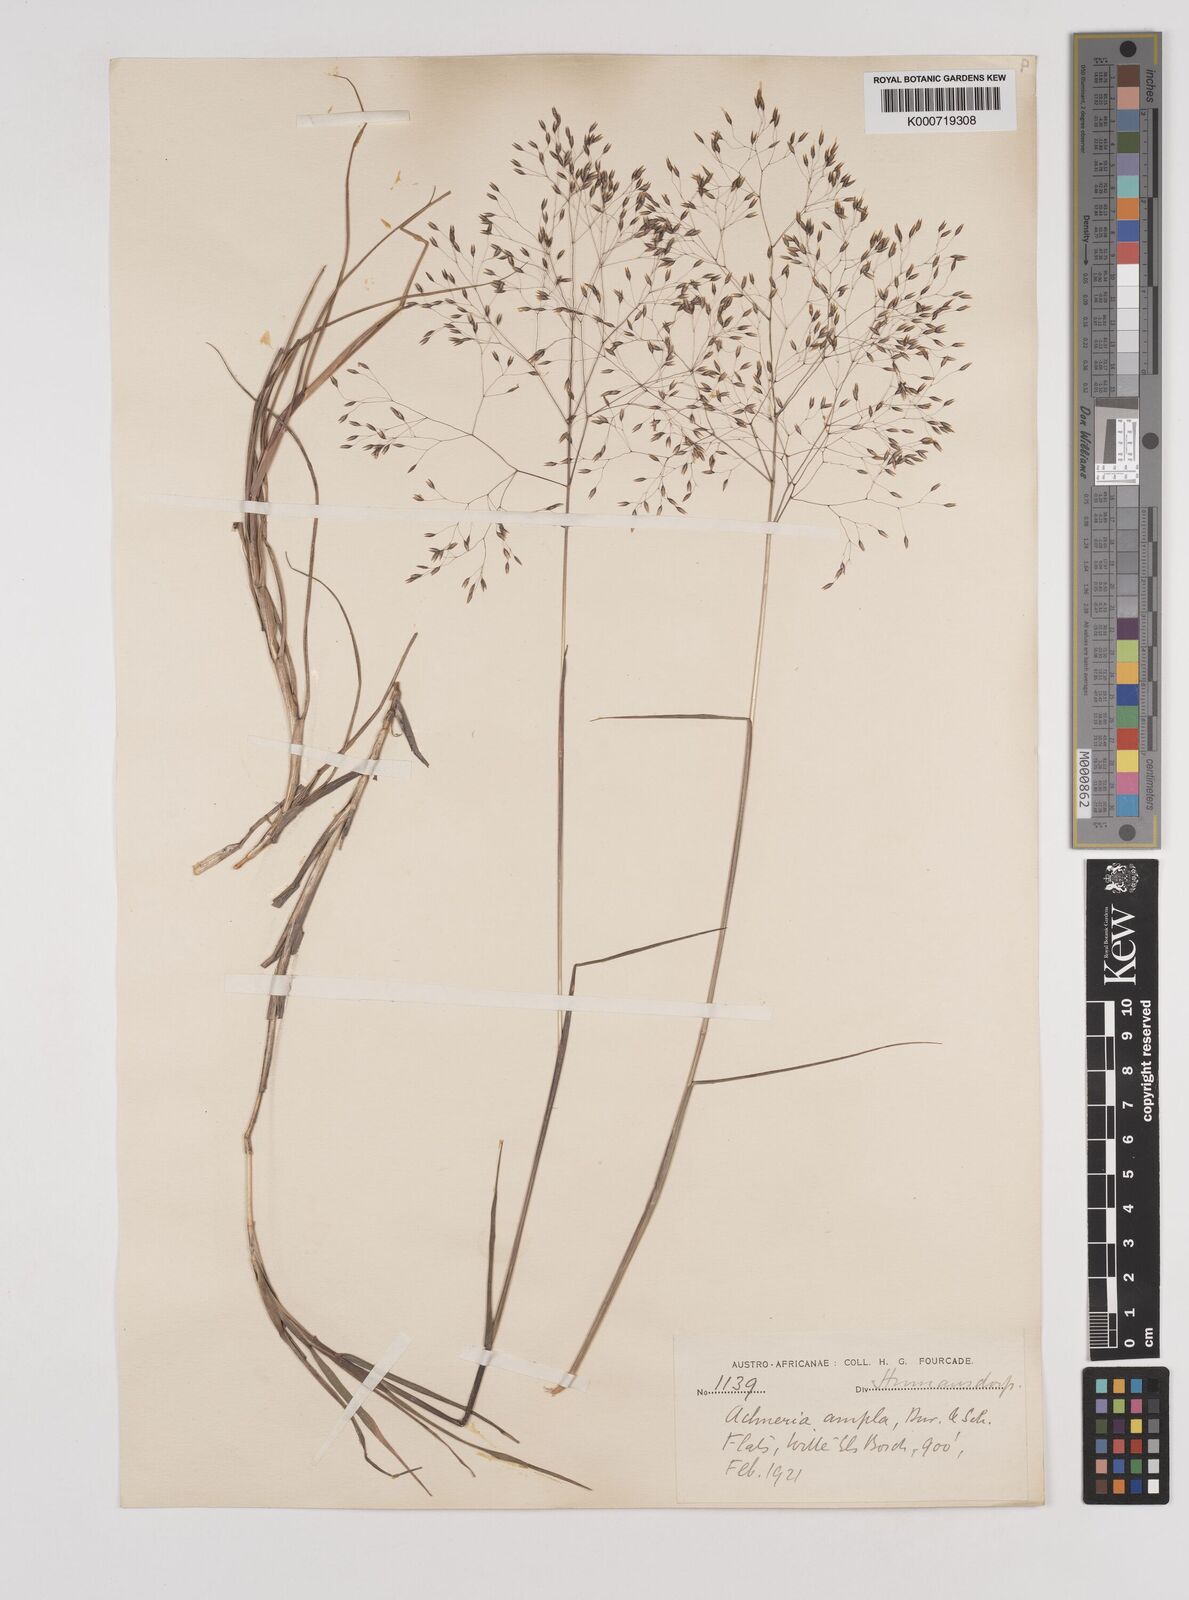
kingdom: Plantae
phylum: Tracheophyta
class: Liliopsida
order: Poales
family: Poaceae
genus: Pentameris
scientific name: Pentameris ampla
